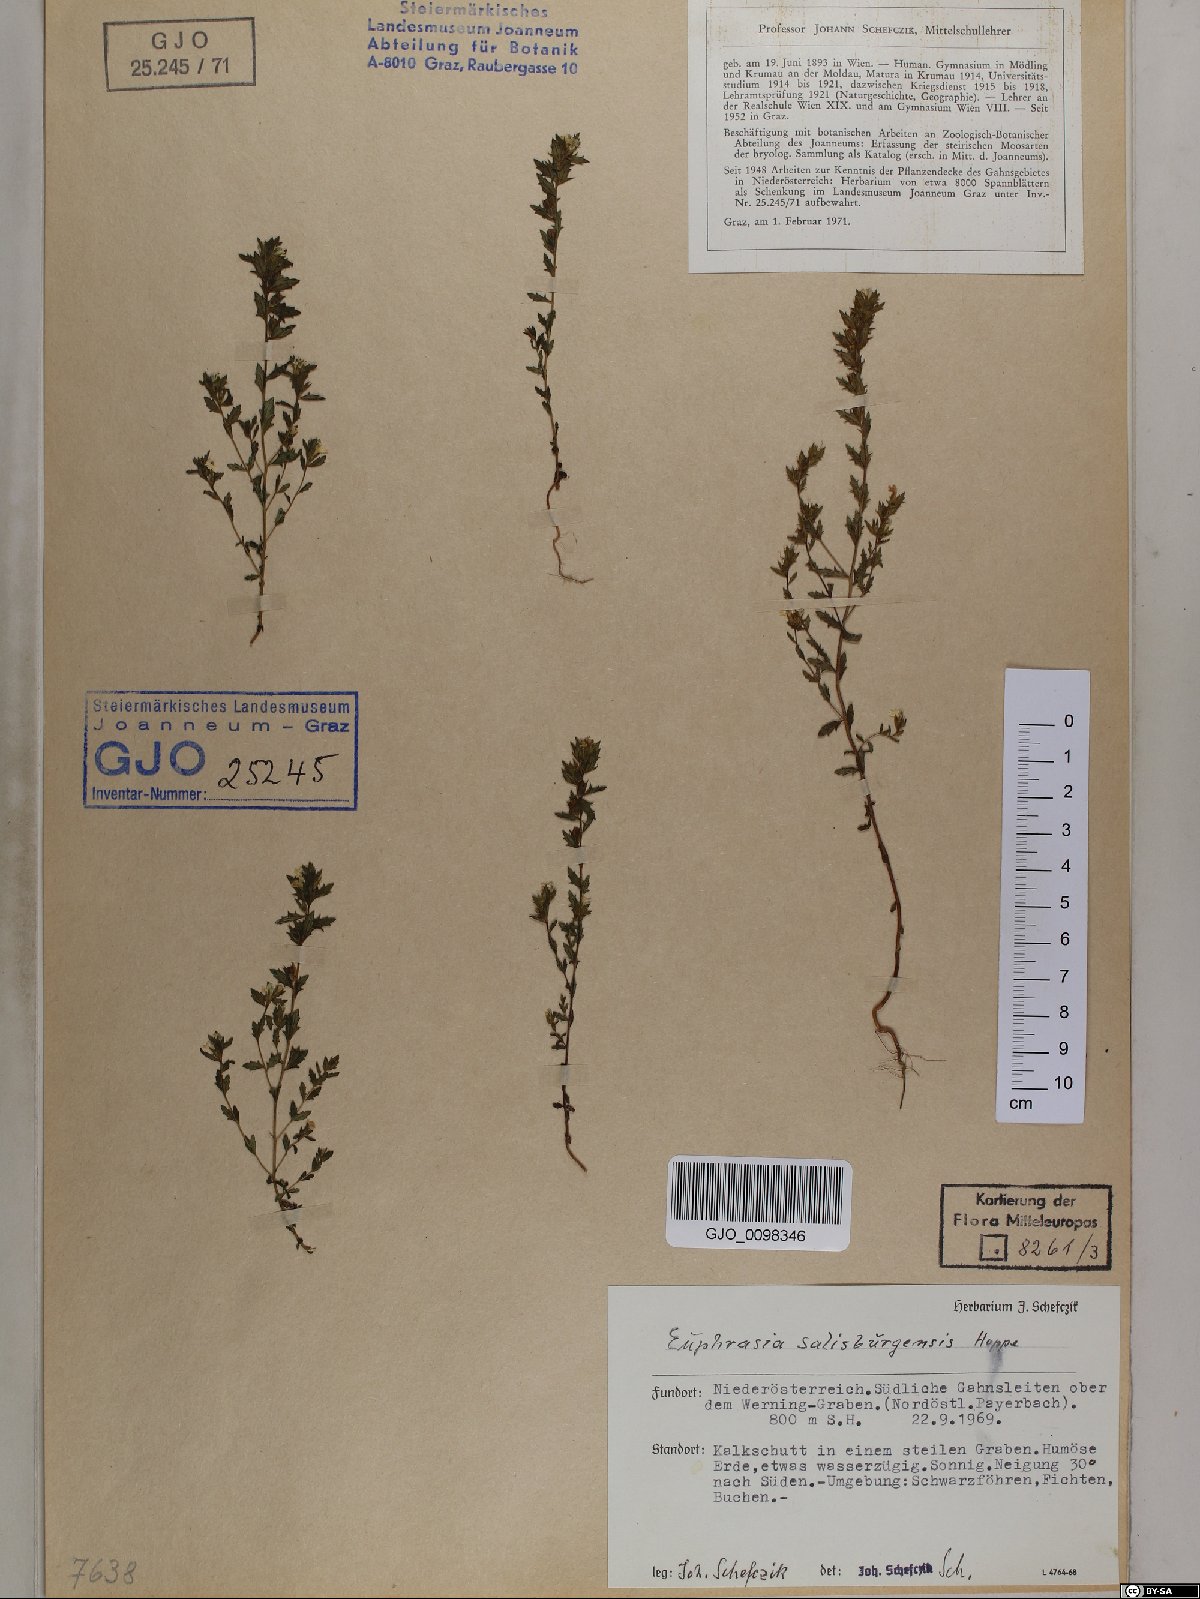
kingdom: Plantae
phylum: Tracheophyta
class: Magnoliopsida
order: Lamiales
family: Orobanchaceae
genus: Euphrasia
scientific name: Euphrasia salisburgensis
